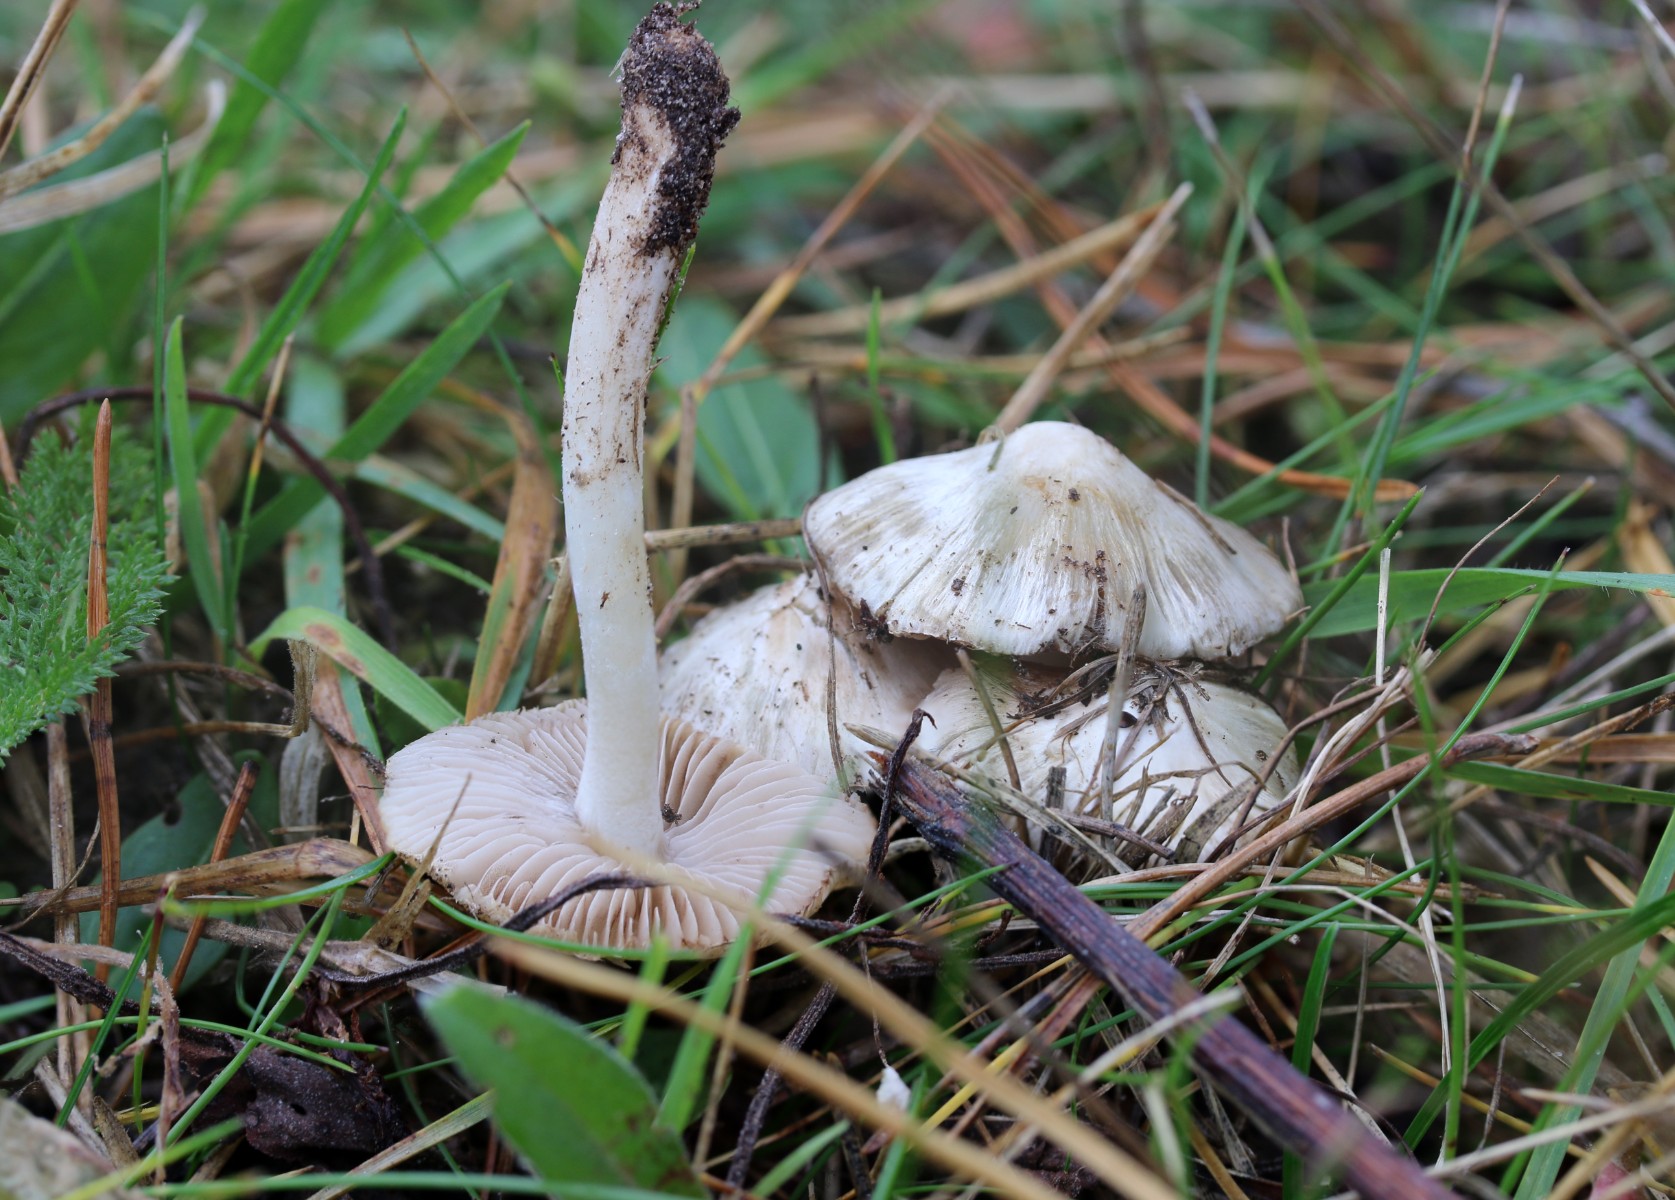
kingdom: Fungi
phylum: Basidiomycota
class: Agaricomycetes
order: Agaricales
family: Inocybaceae
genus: Inocybe
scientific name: Inocybe
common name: almindelig trævlhat
